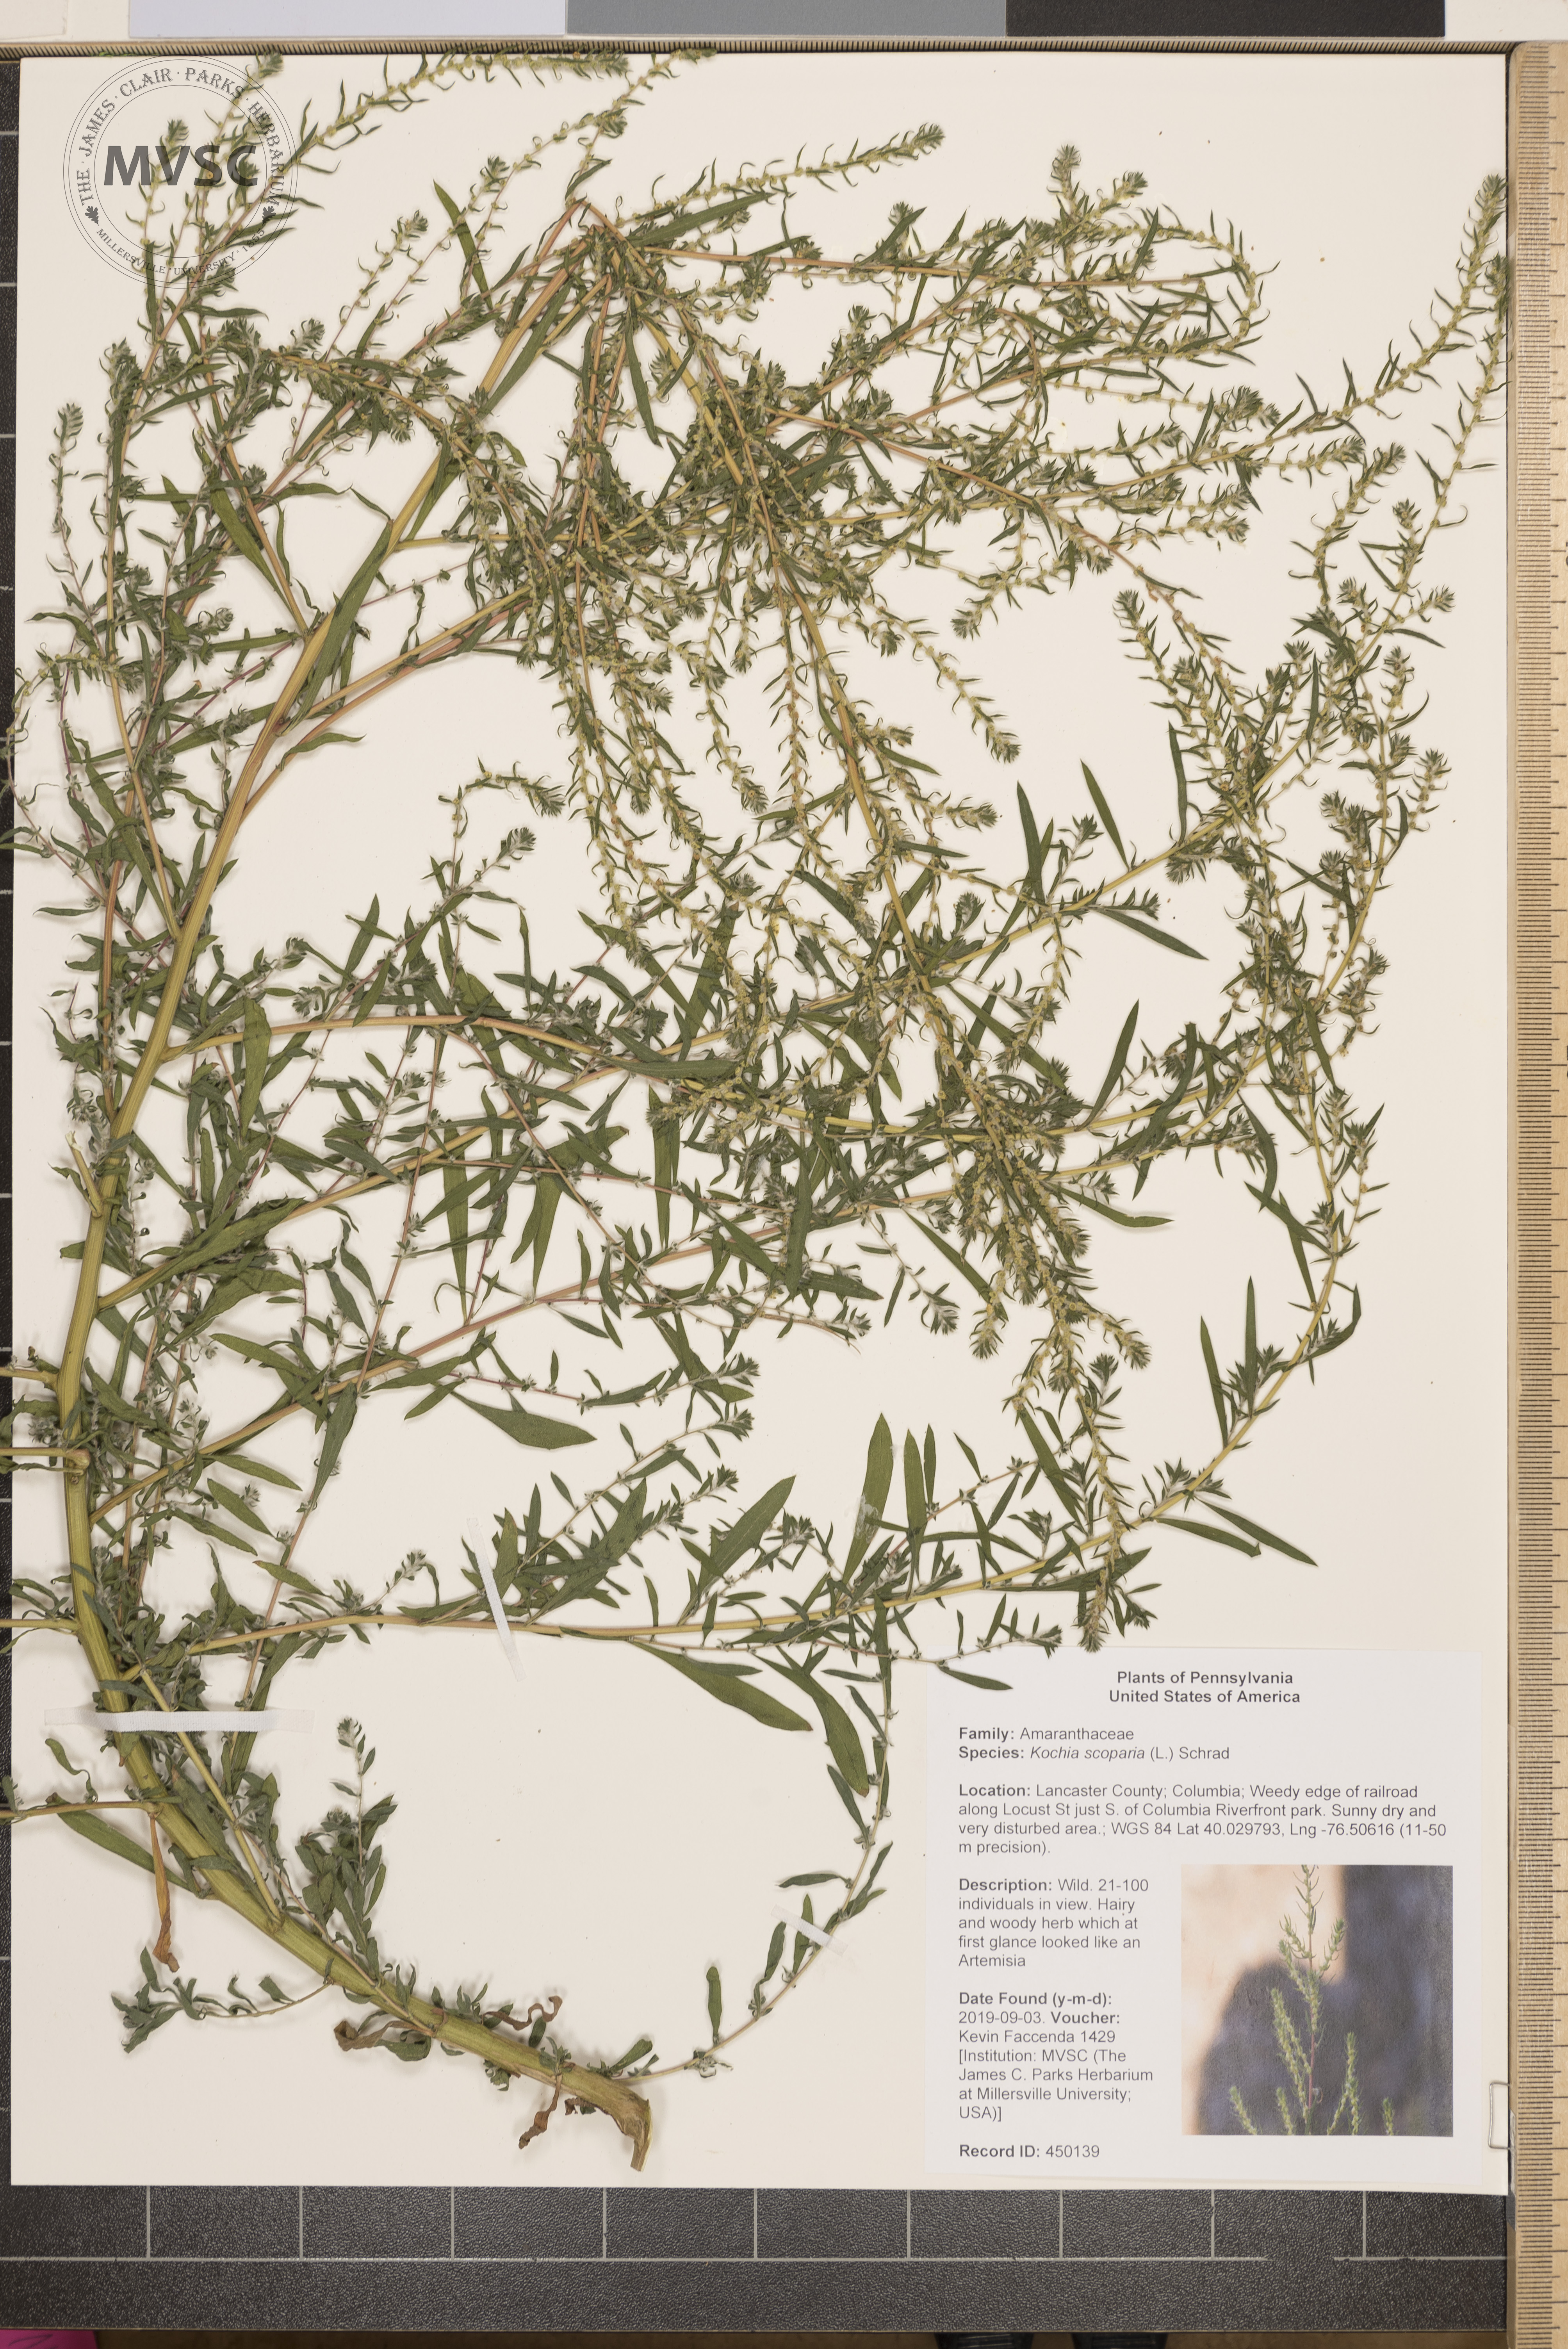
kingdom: Plantae
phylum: Tracheophyta
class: Magnoliopsida
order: Caryophyllales
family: Amaranthaceae
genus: Bassia
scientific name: Bassia scoparia
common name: Belvedere
